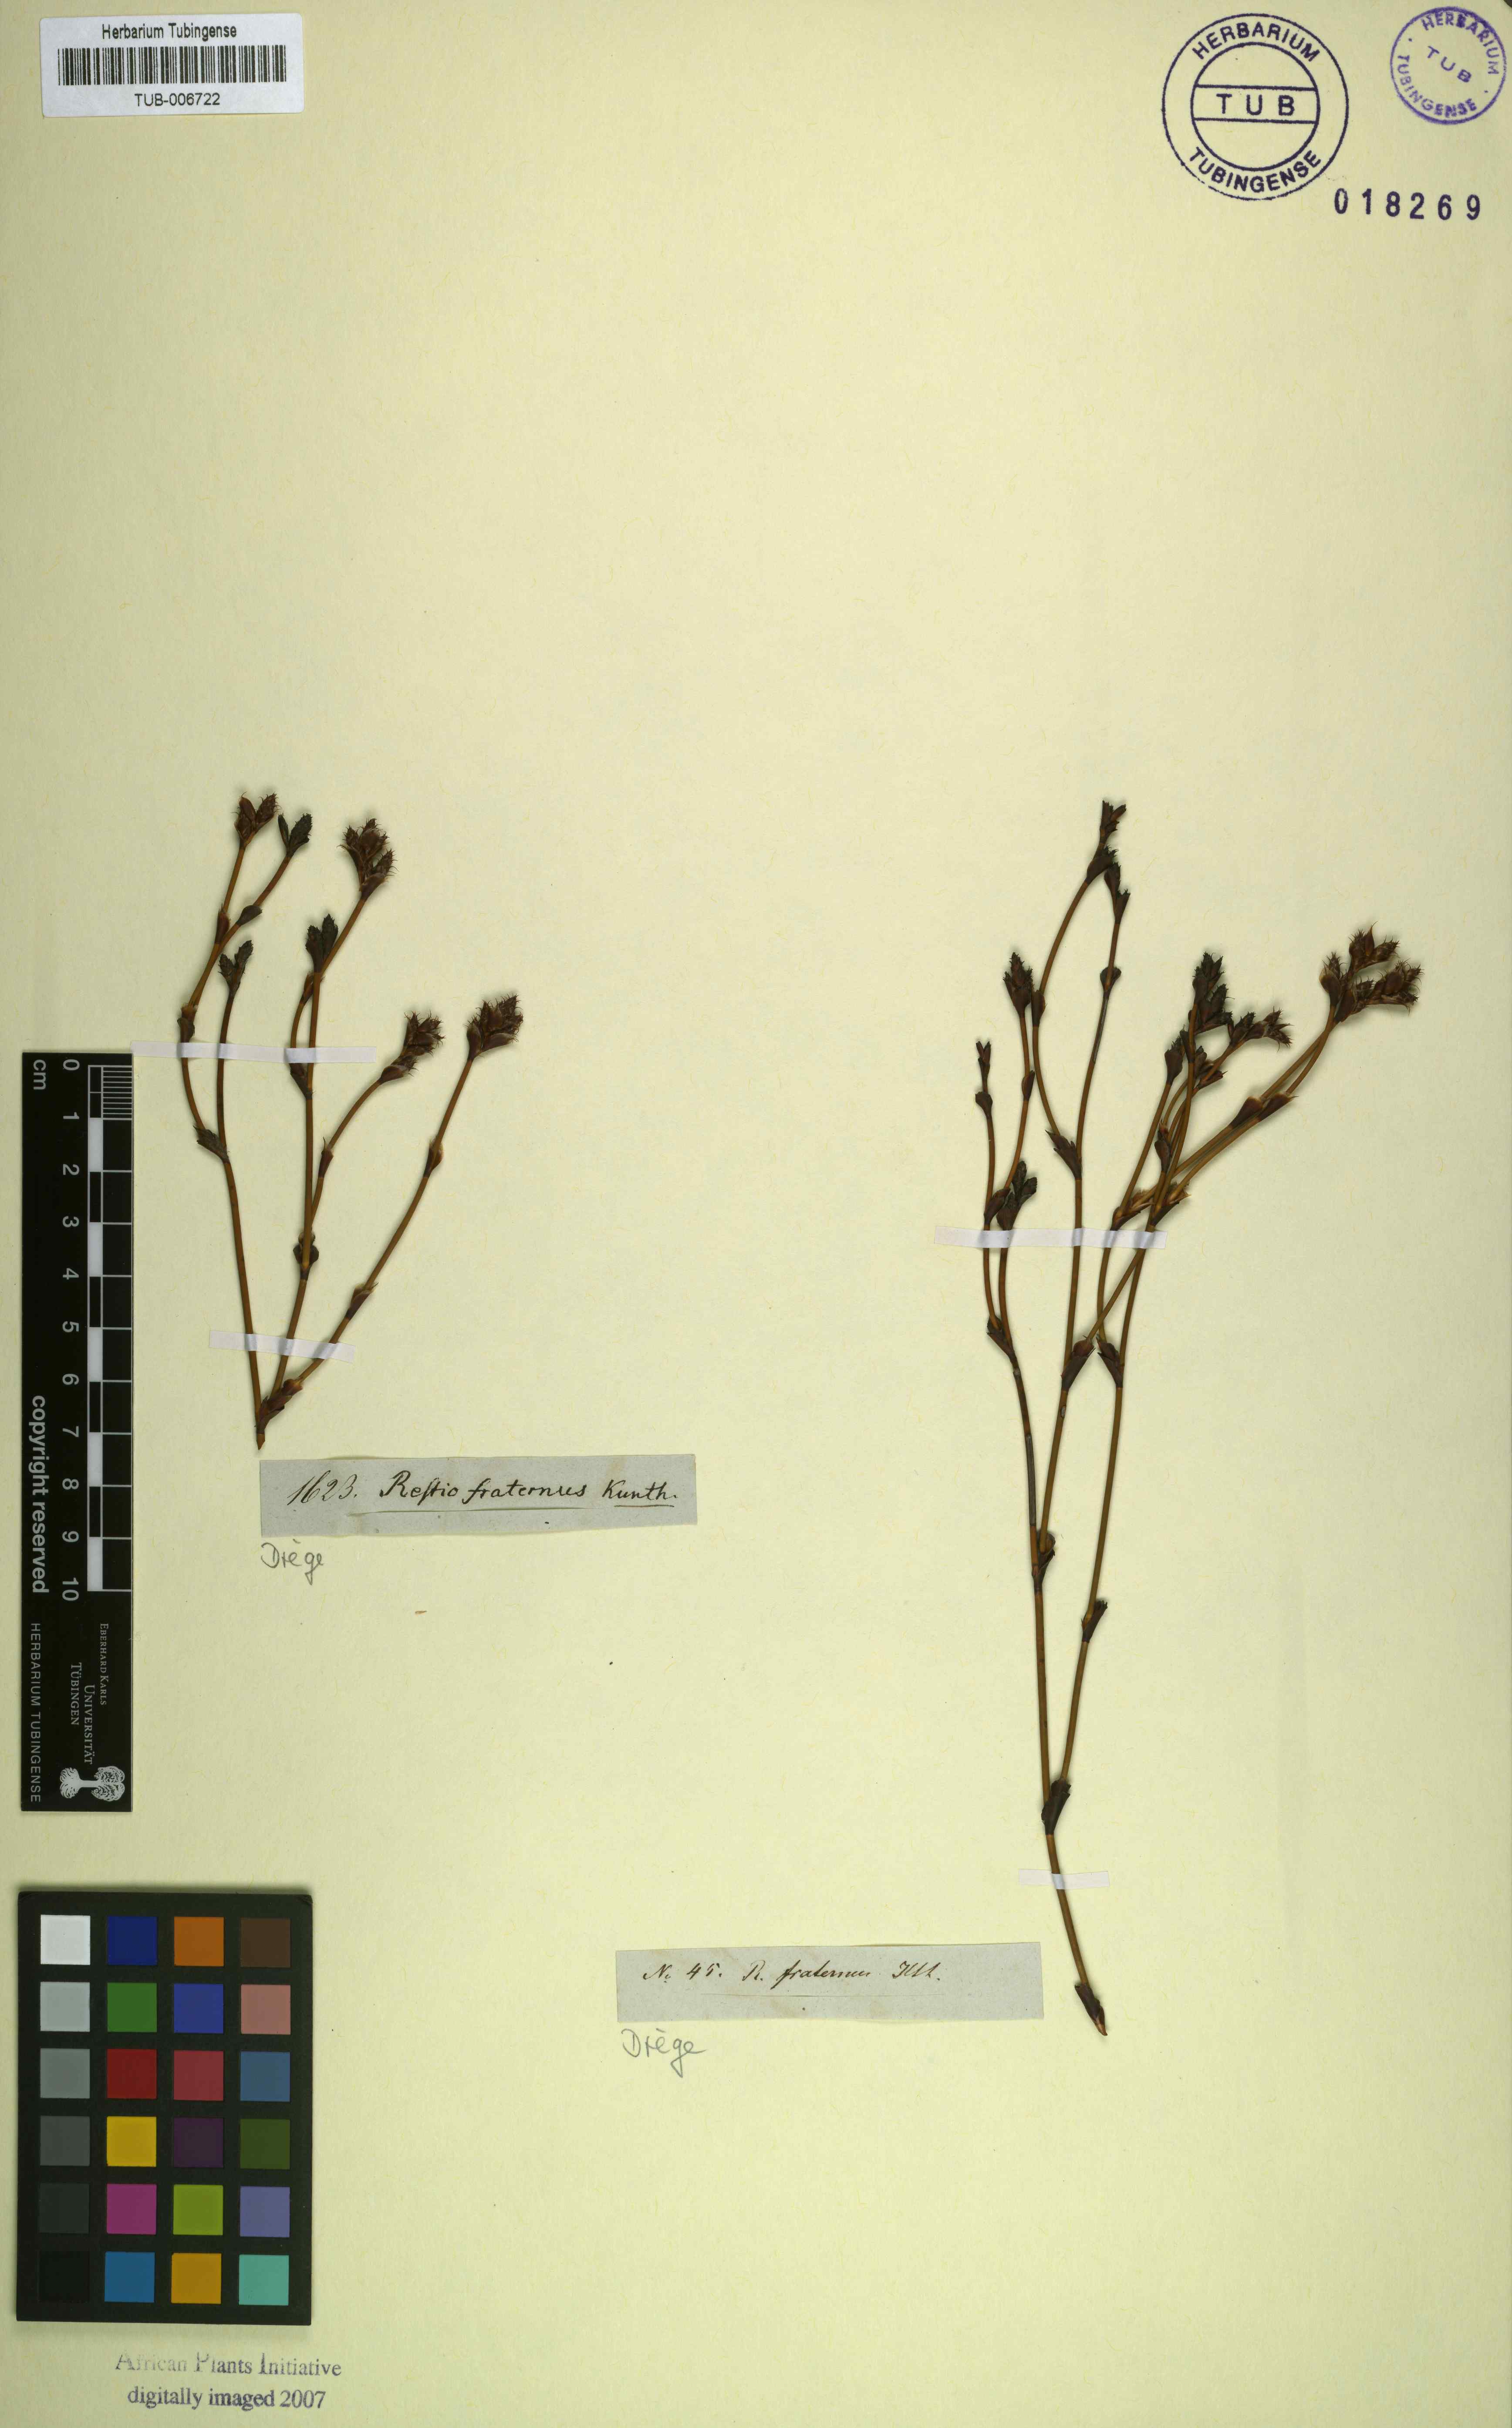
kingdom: Plantae
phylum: Tracheophyta
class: Liliopsida
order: Poales
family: Restionaceae
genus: Restio
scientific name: Restio fraternus
